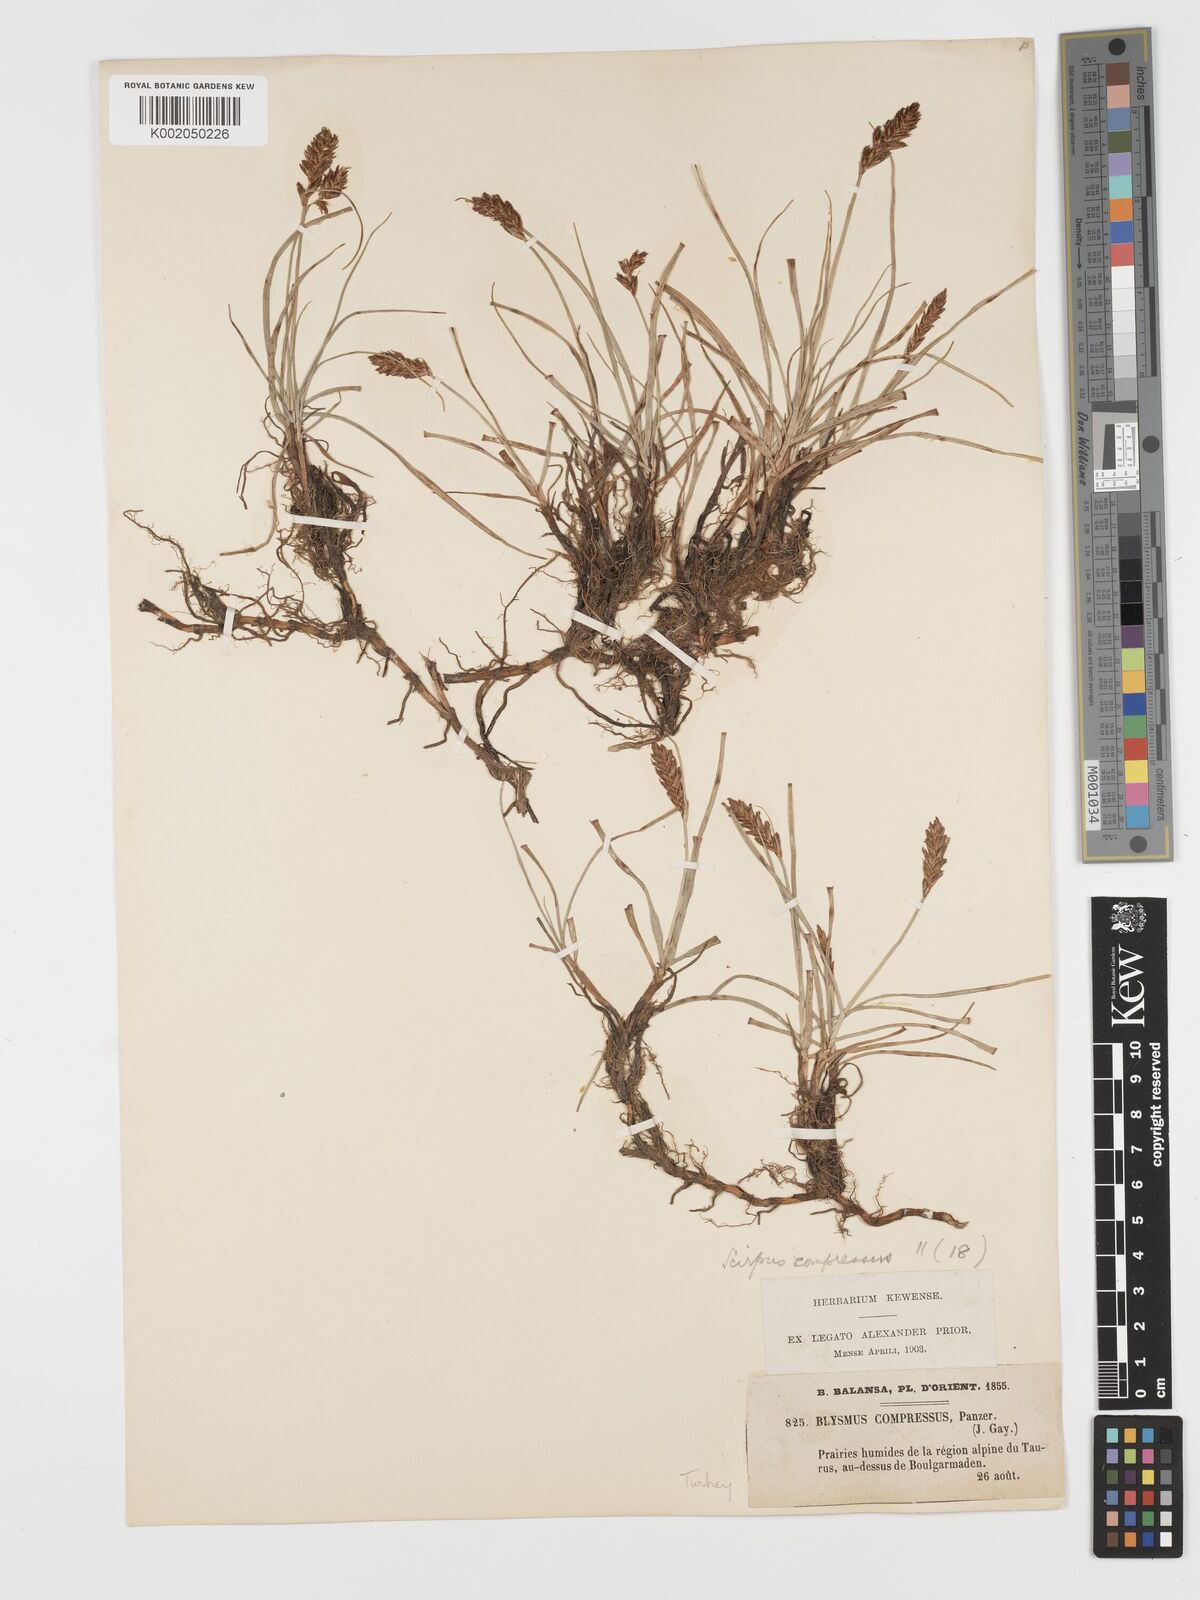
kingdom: Plantae
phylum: Tracheophyta
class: Liliopsida
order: Poales
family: Cyperaceae
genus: Blysmus
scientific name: Blysmus compressus
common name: Flat-sedge
